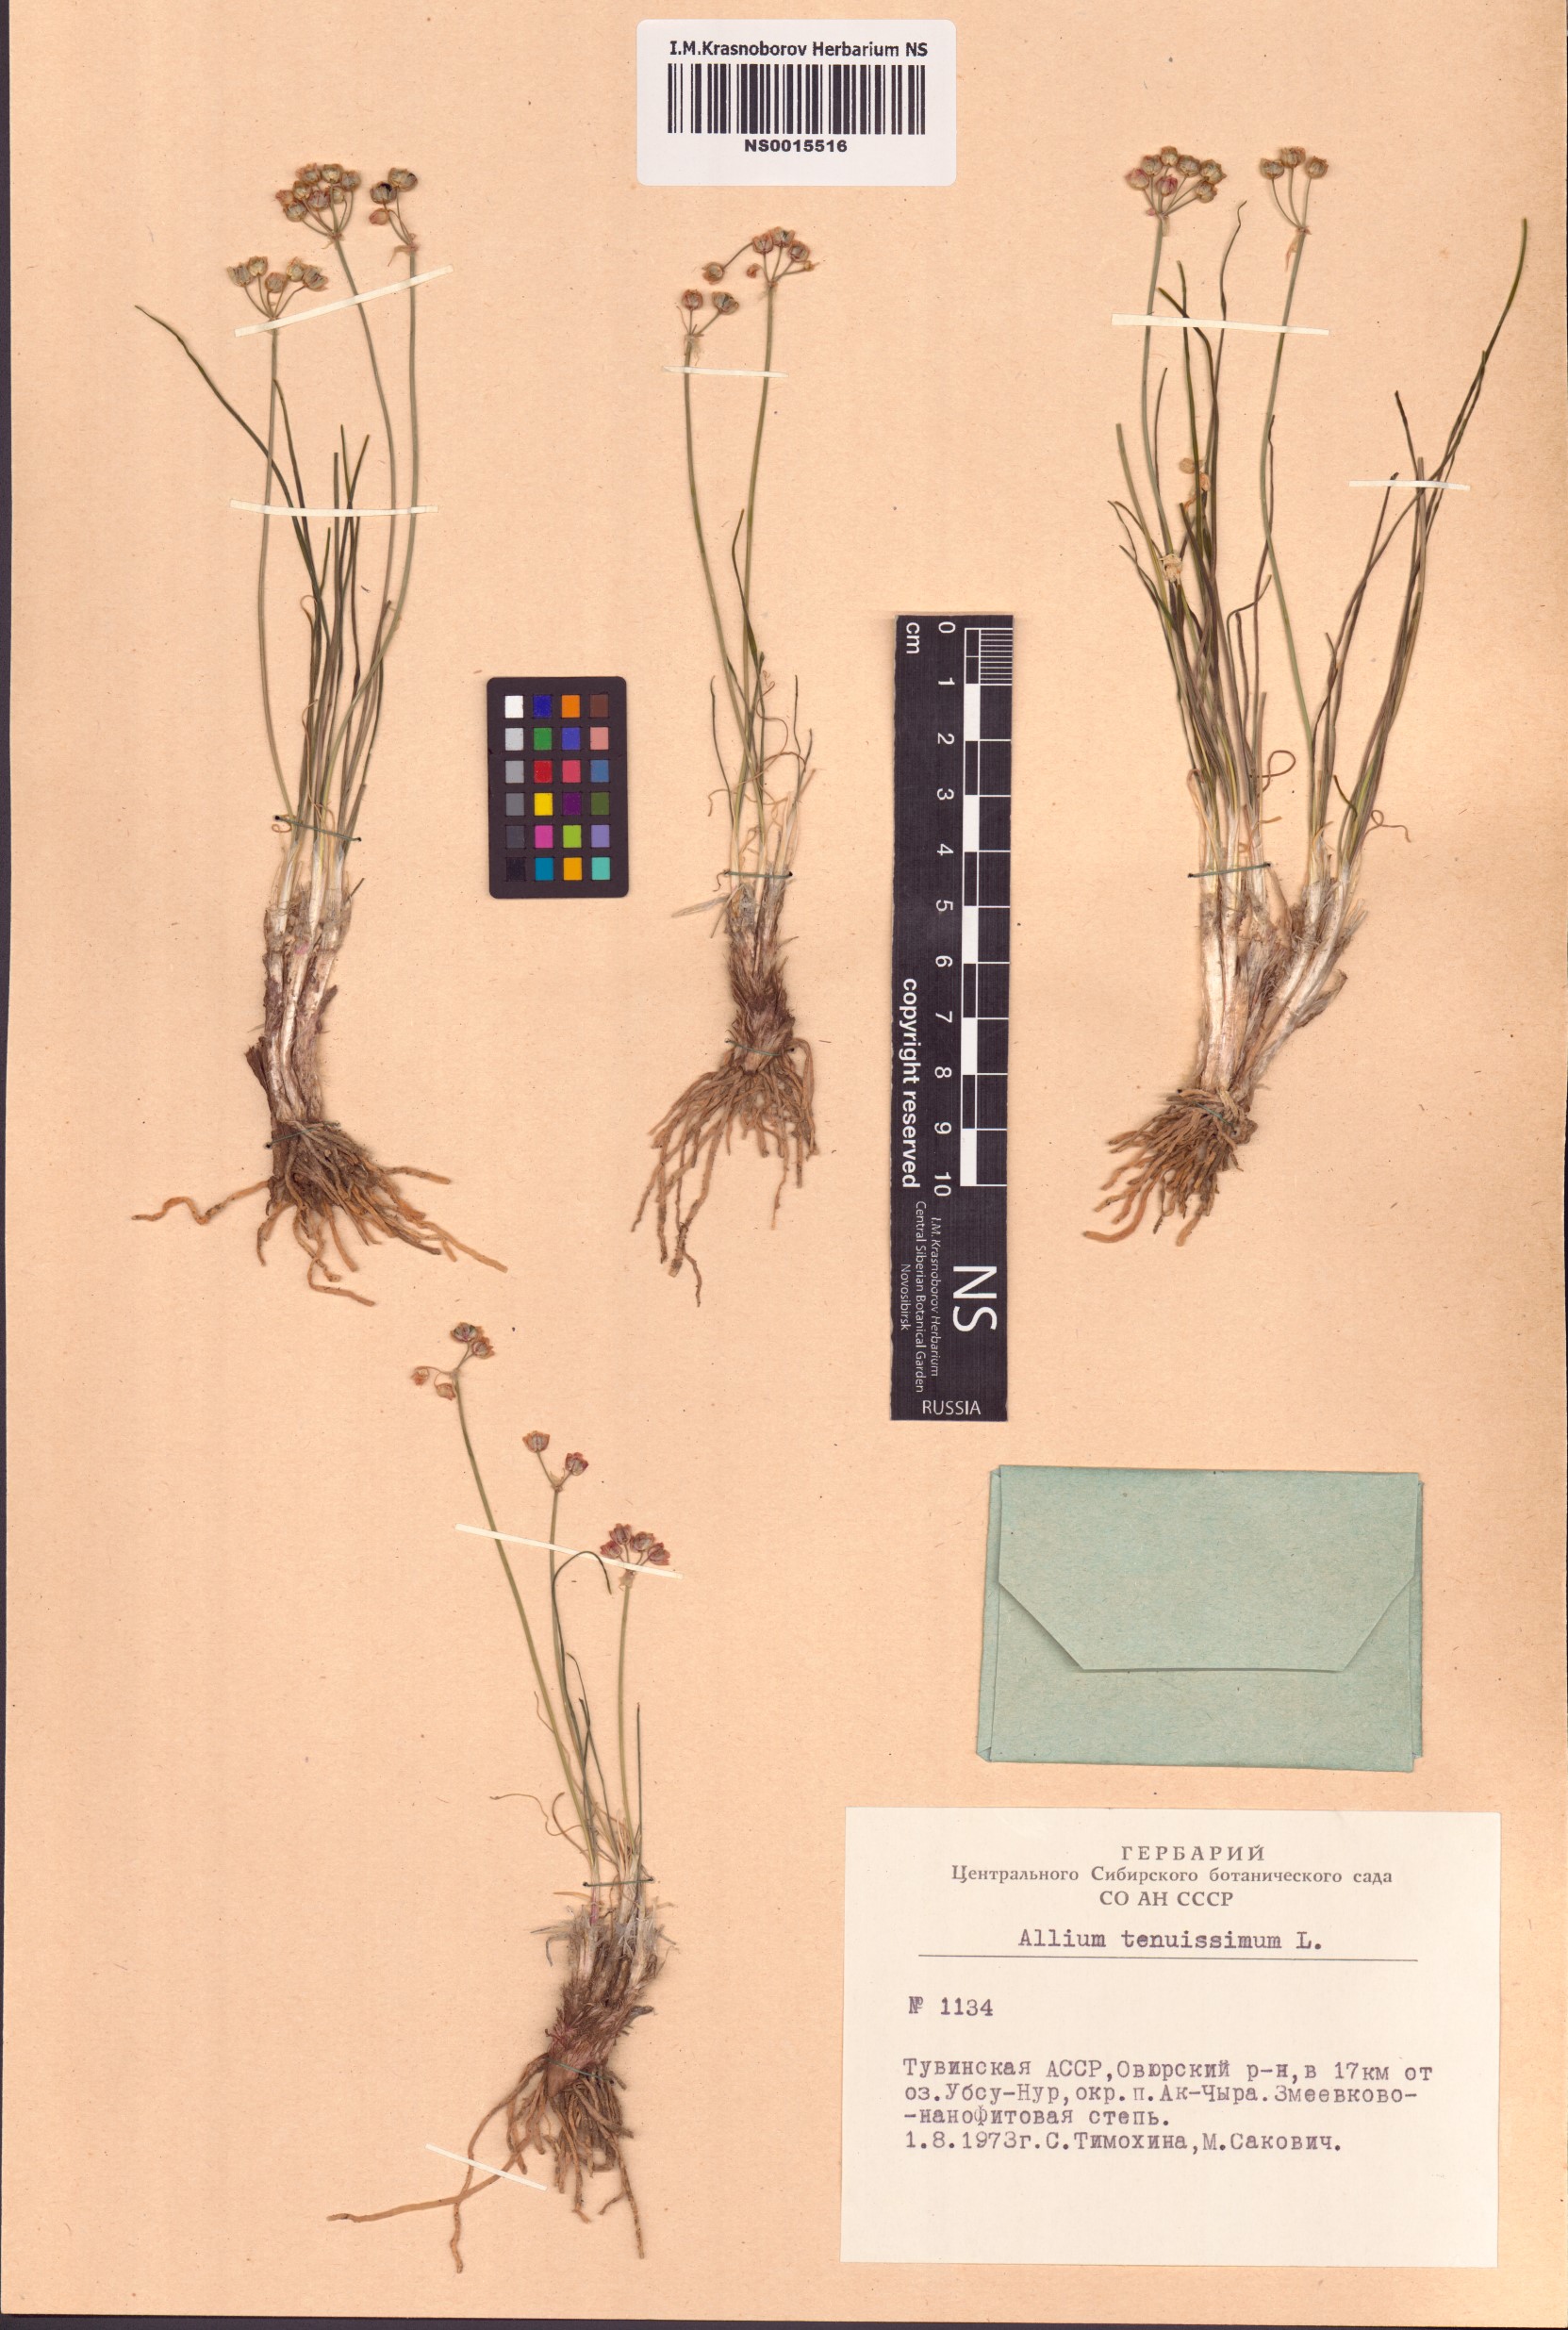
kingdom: Plantae
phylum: Tracheophyta
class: Liliopsida
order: Asparagales
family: Amaryllidaceae
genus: Allium
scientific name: Allium tenuissimum
